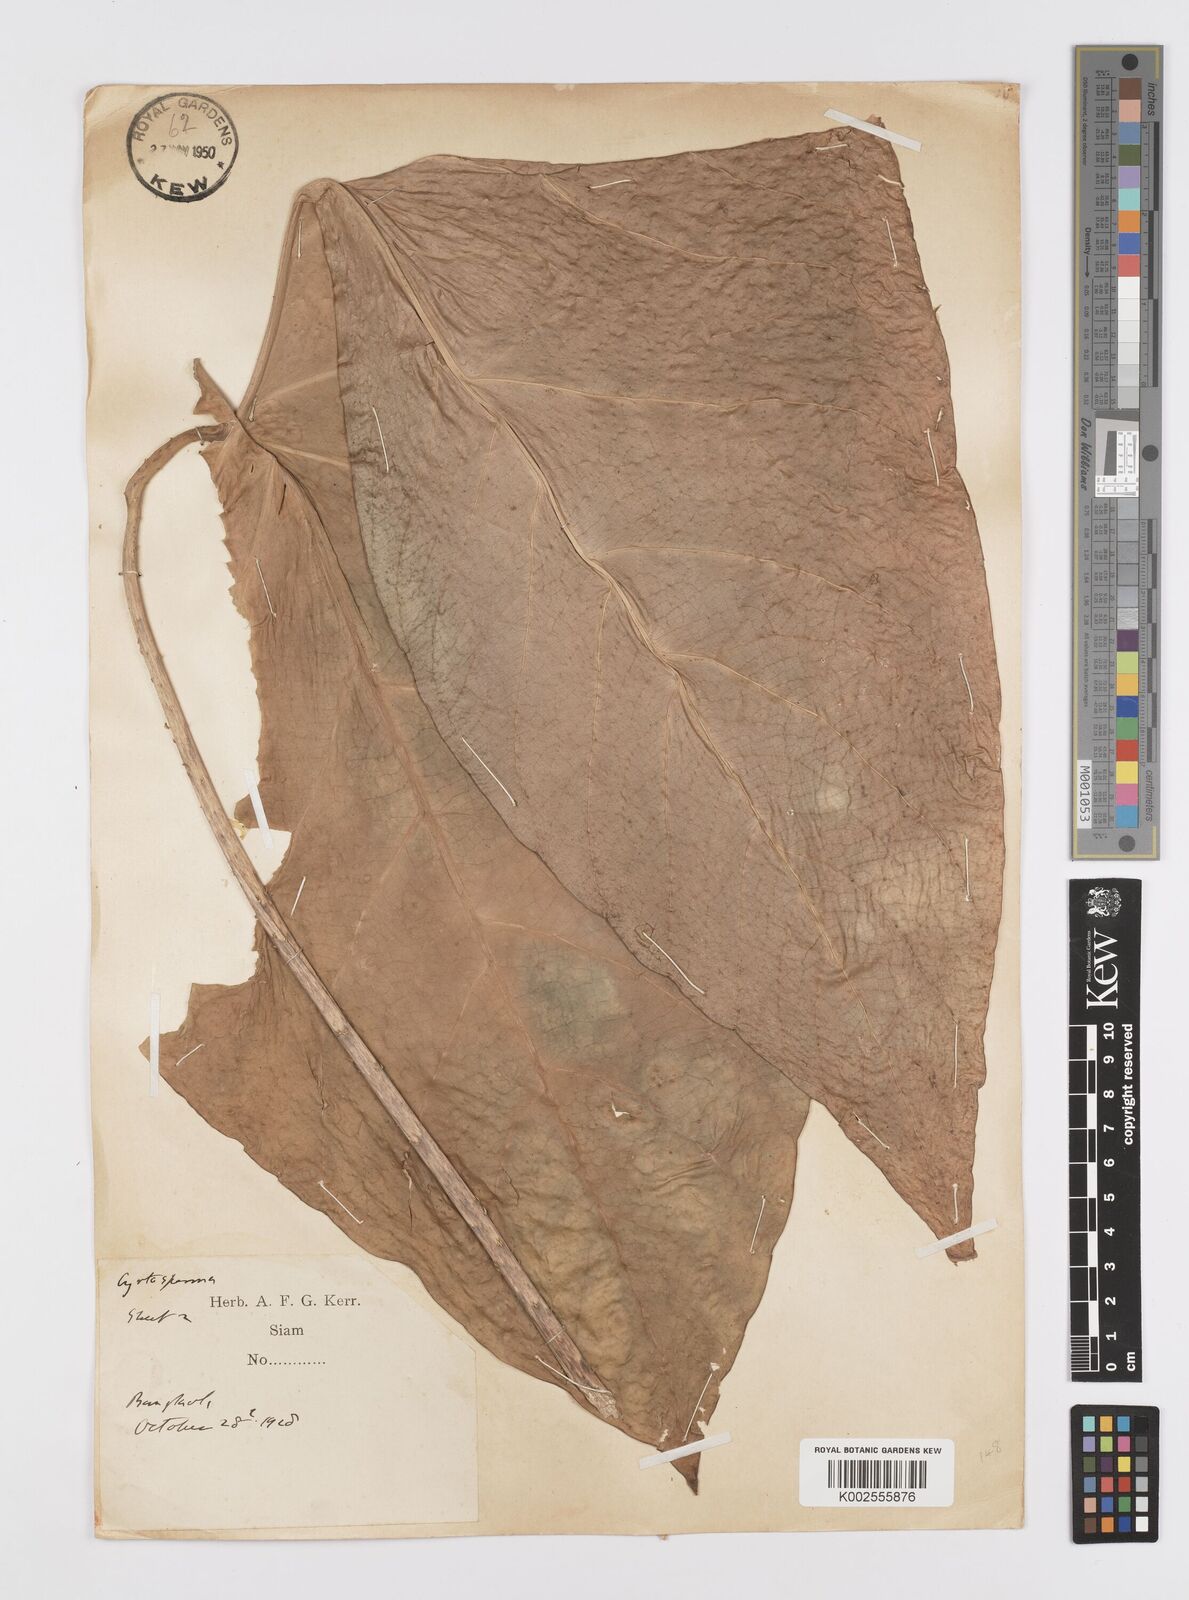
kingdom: Plantae
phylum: Tracheophyta
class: Liliopsida
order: Alismatales
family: Araceae
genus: Cyrtosperma
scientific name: Cyrtosperma merkusii
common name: Giant swamp-taro
